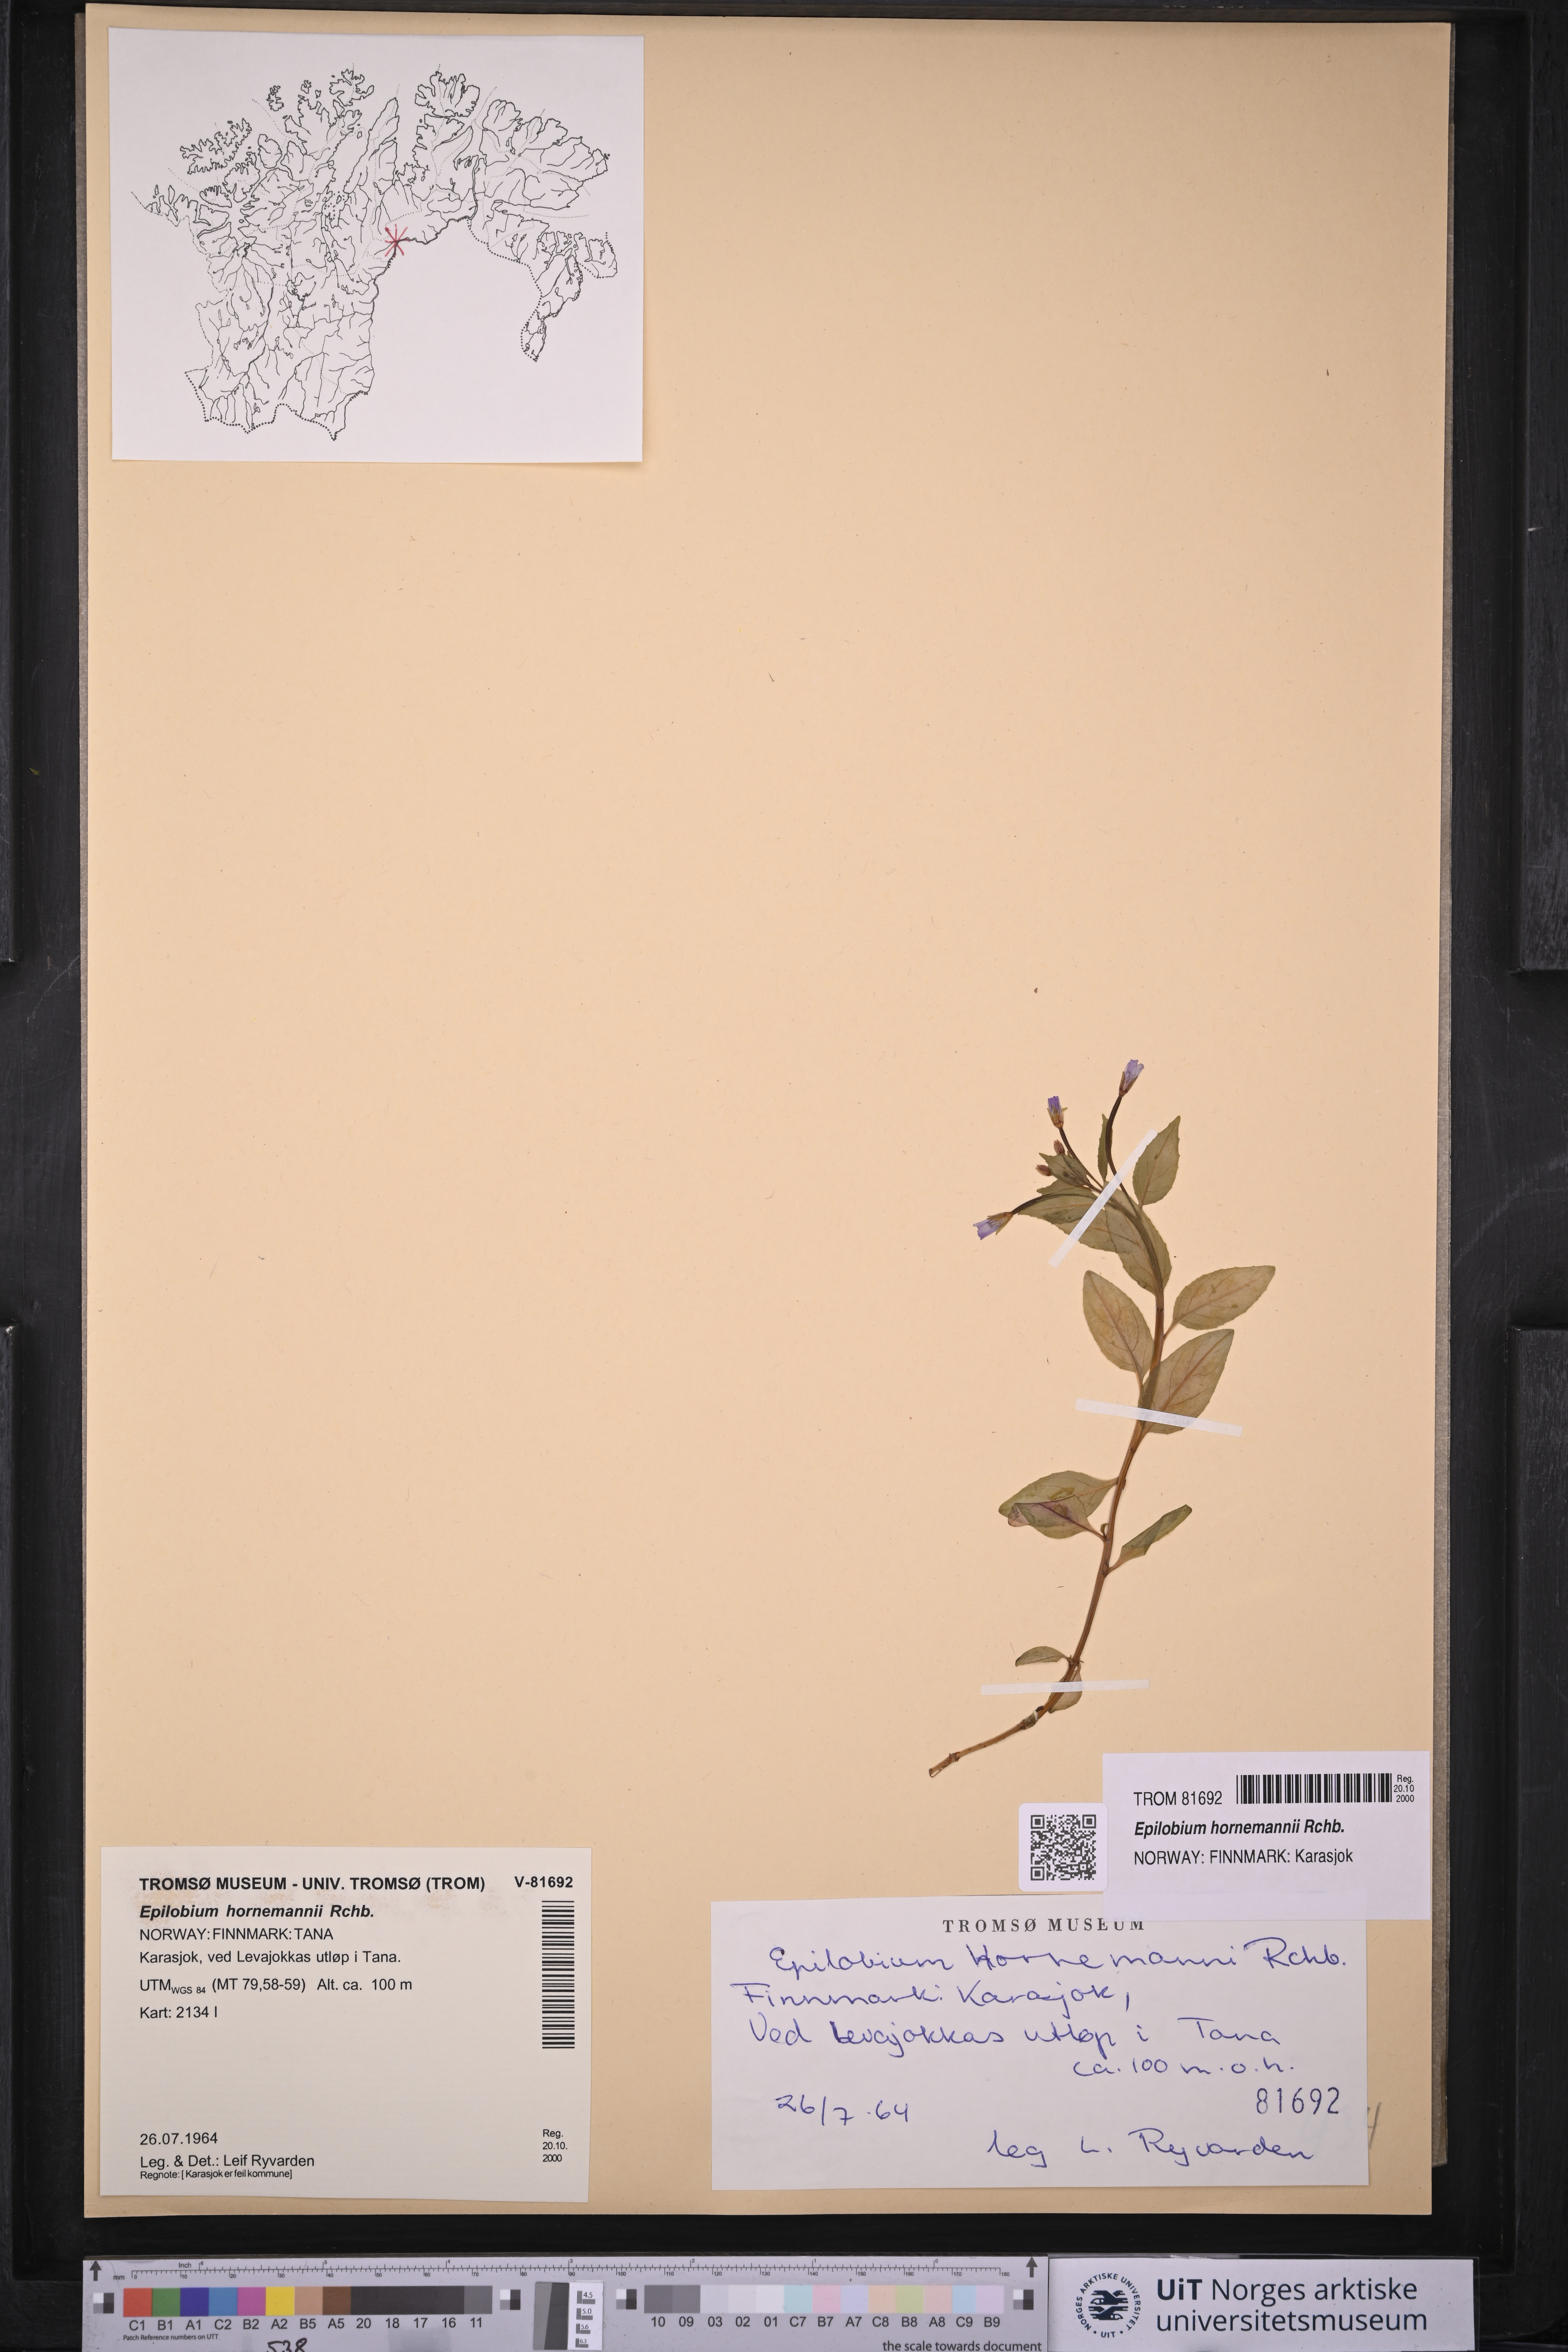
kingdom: Plantae
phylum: Tracheophyta
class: Magnoliopsida
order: Myrtales
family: Onagraceae
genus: Epilobium
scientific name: Epilobium hornemannii
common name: Hornemann's willowherb
